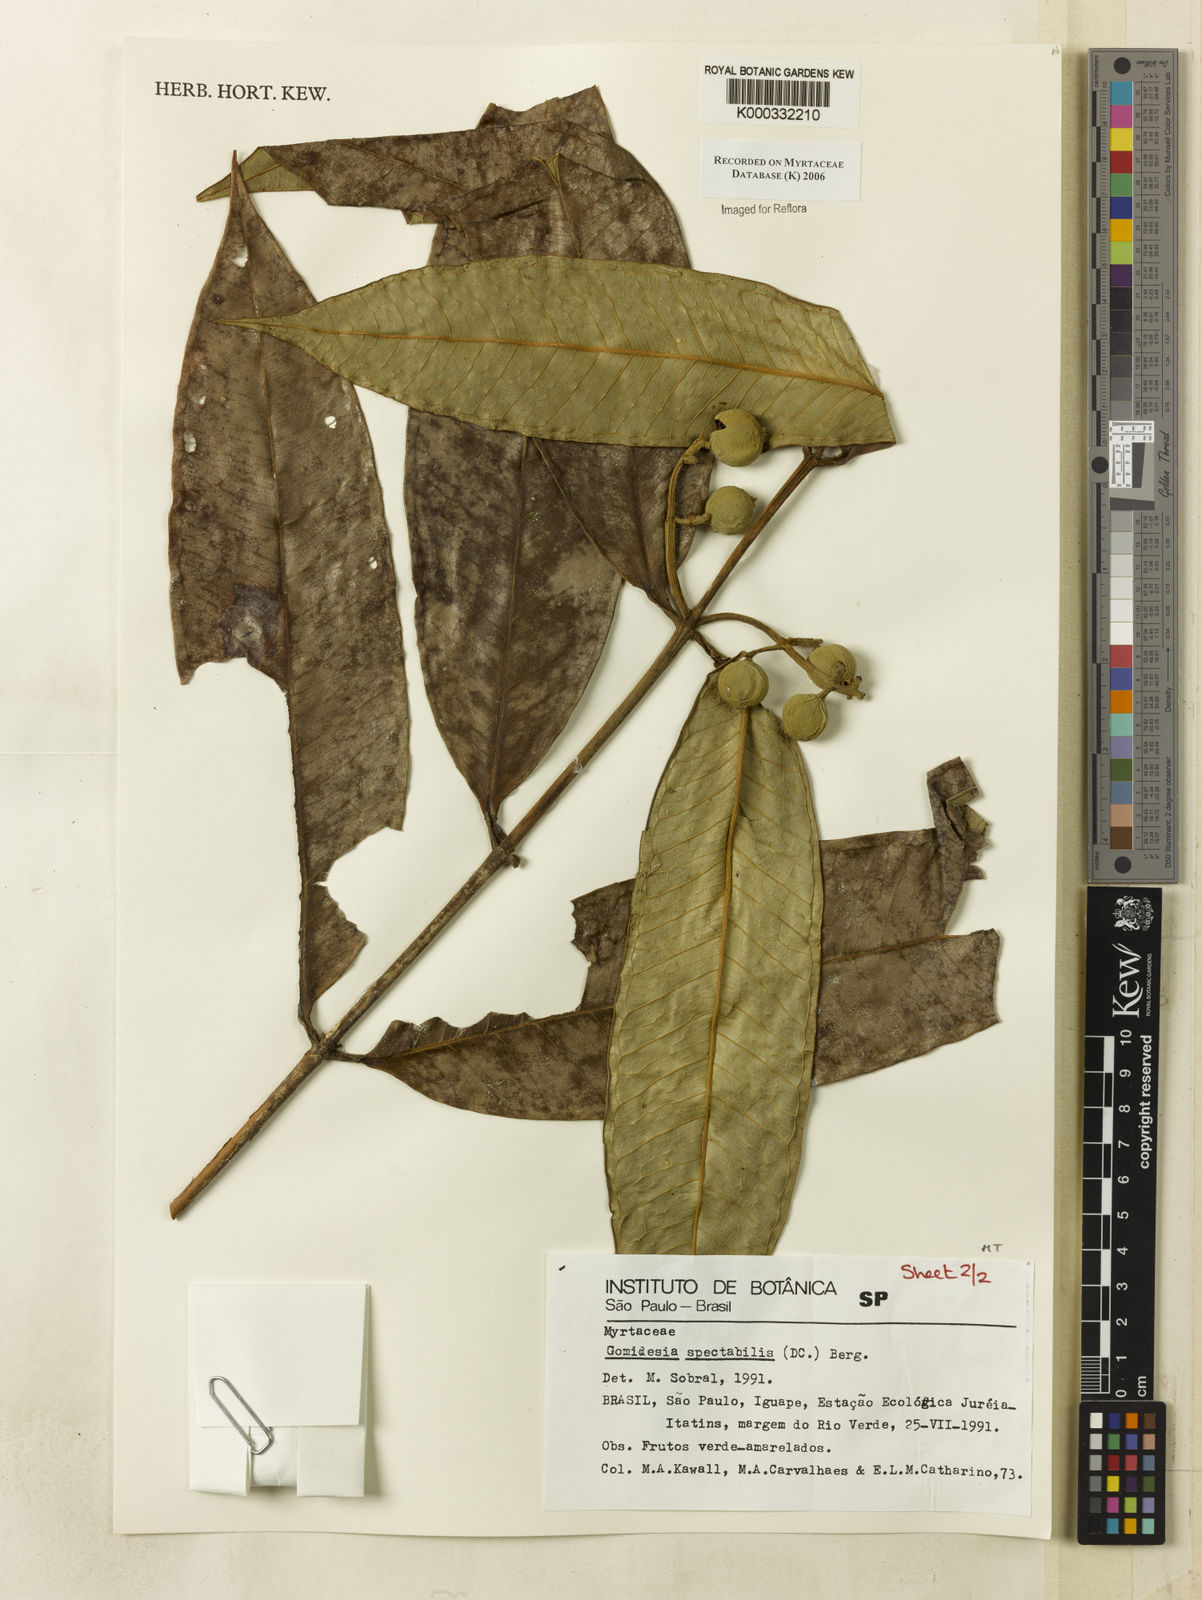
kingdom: Plantae
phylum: Tracheophyta
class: Magnoliopsida
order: Myrtales
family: Myrtaceae
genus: Myrcia
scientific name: Myrcia spectabilis
